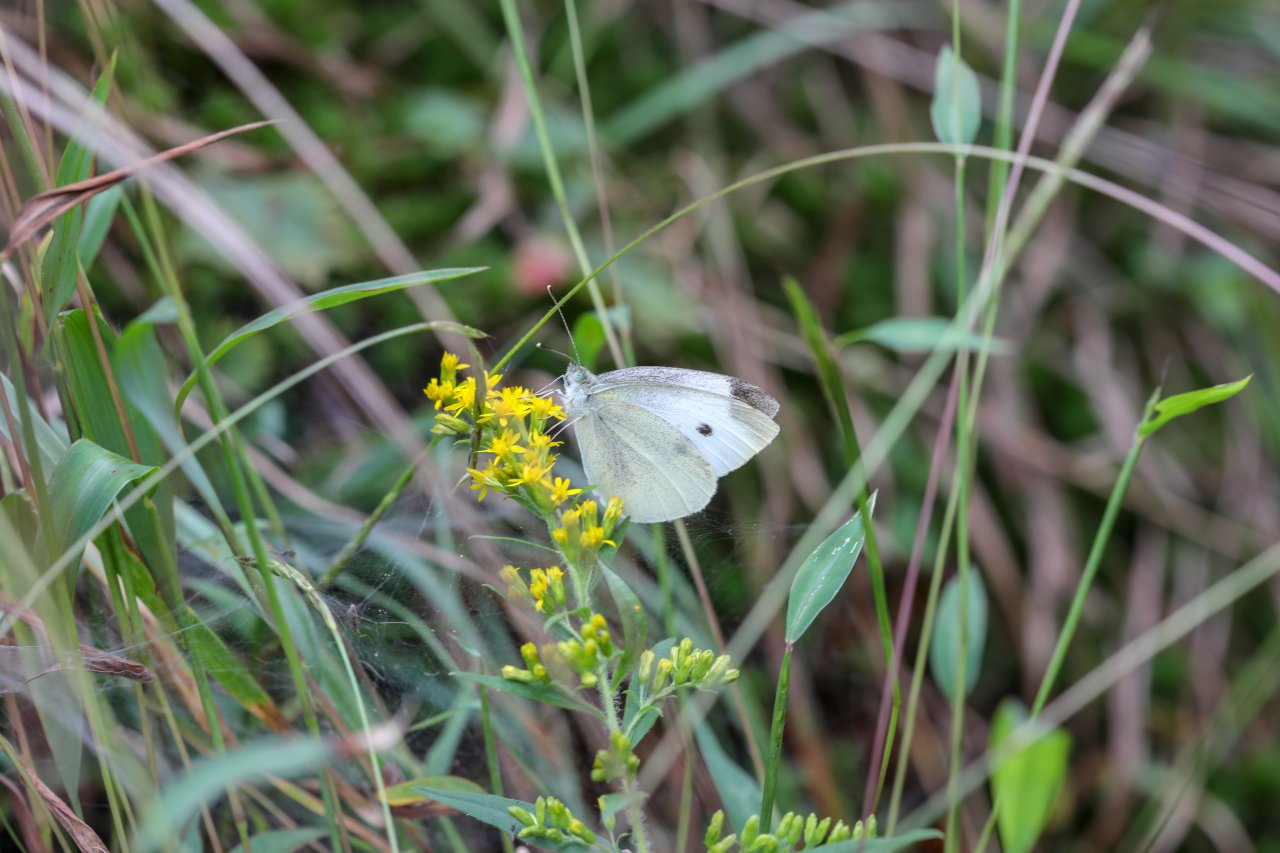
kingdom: Animalia
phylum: Arthropoda
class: Insecta
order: Lepidoptera
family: Pieridae
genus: Pieris
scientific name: Pieris rapae
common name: Cabbage White
